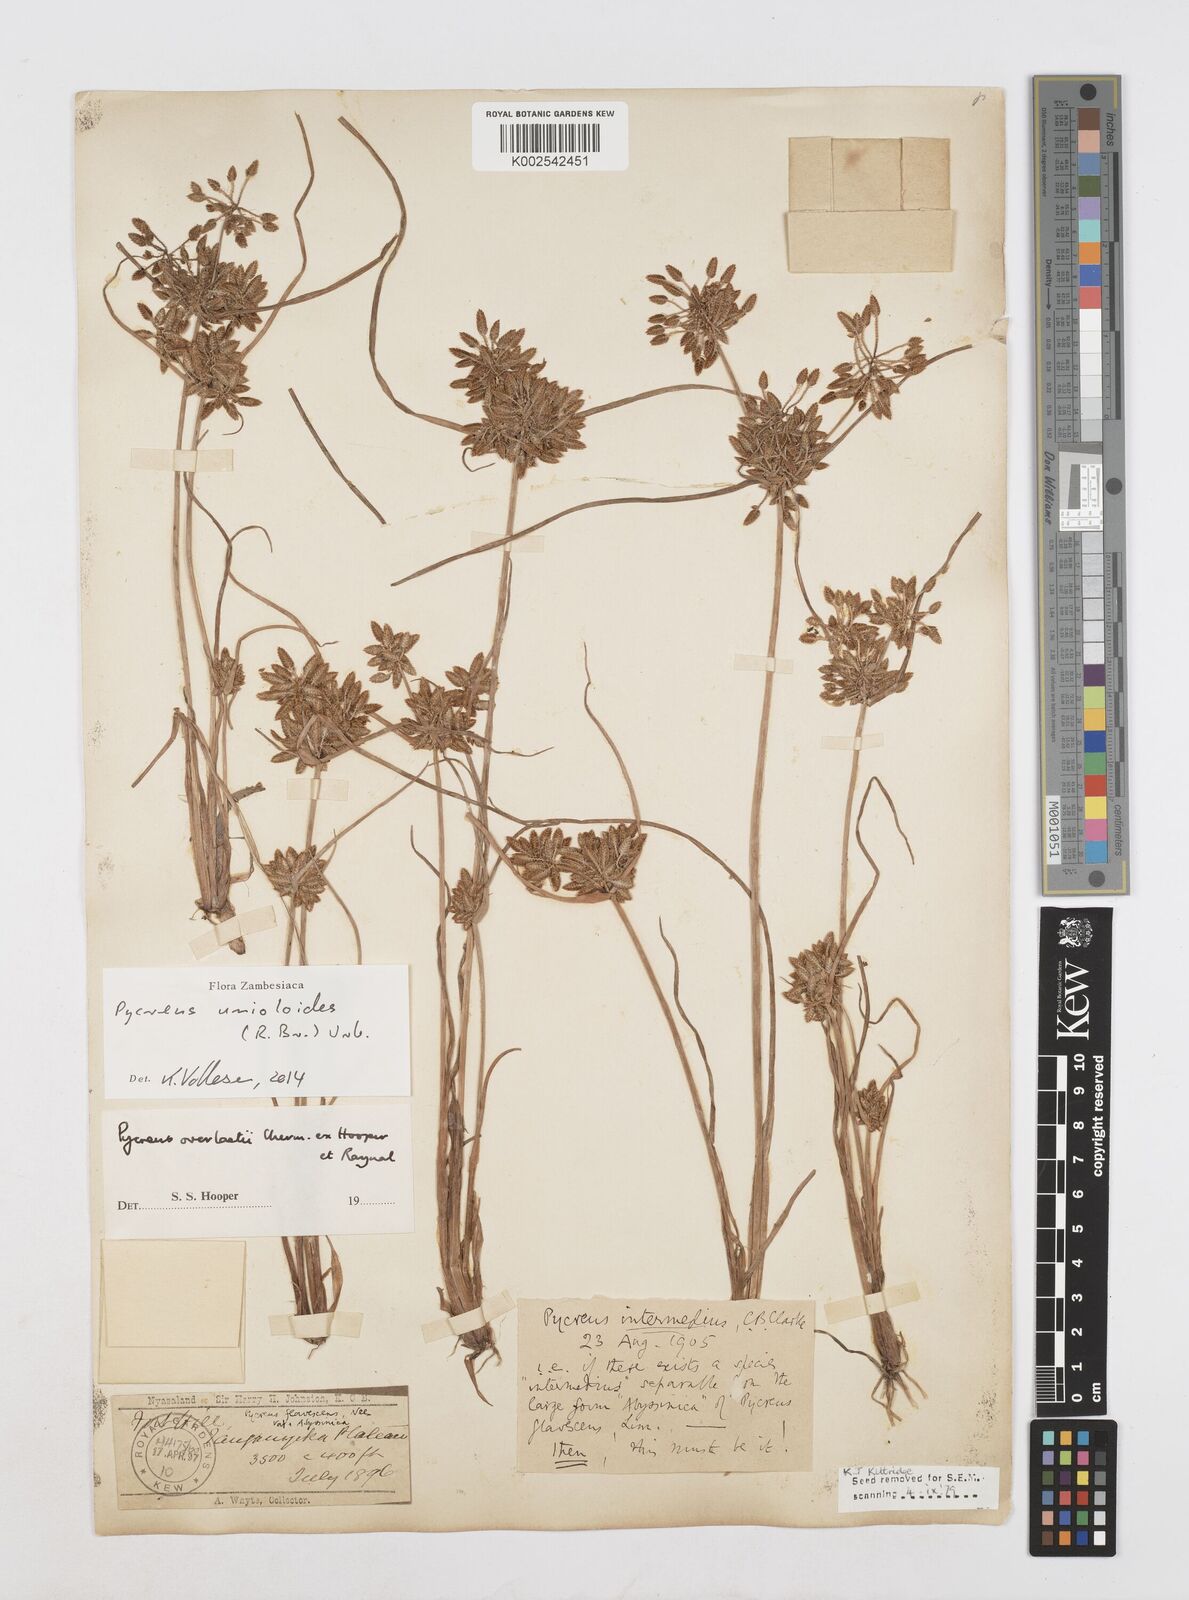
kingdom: Plantae
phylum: Tracheophyta
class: Liliopsida
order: Poales
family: Cyperaceae
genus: Cyperus
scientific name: Cyperus unioloides
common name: Uniola flatsedge
